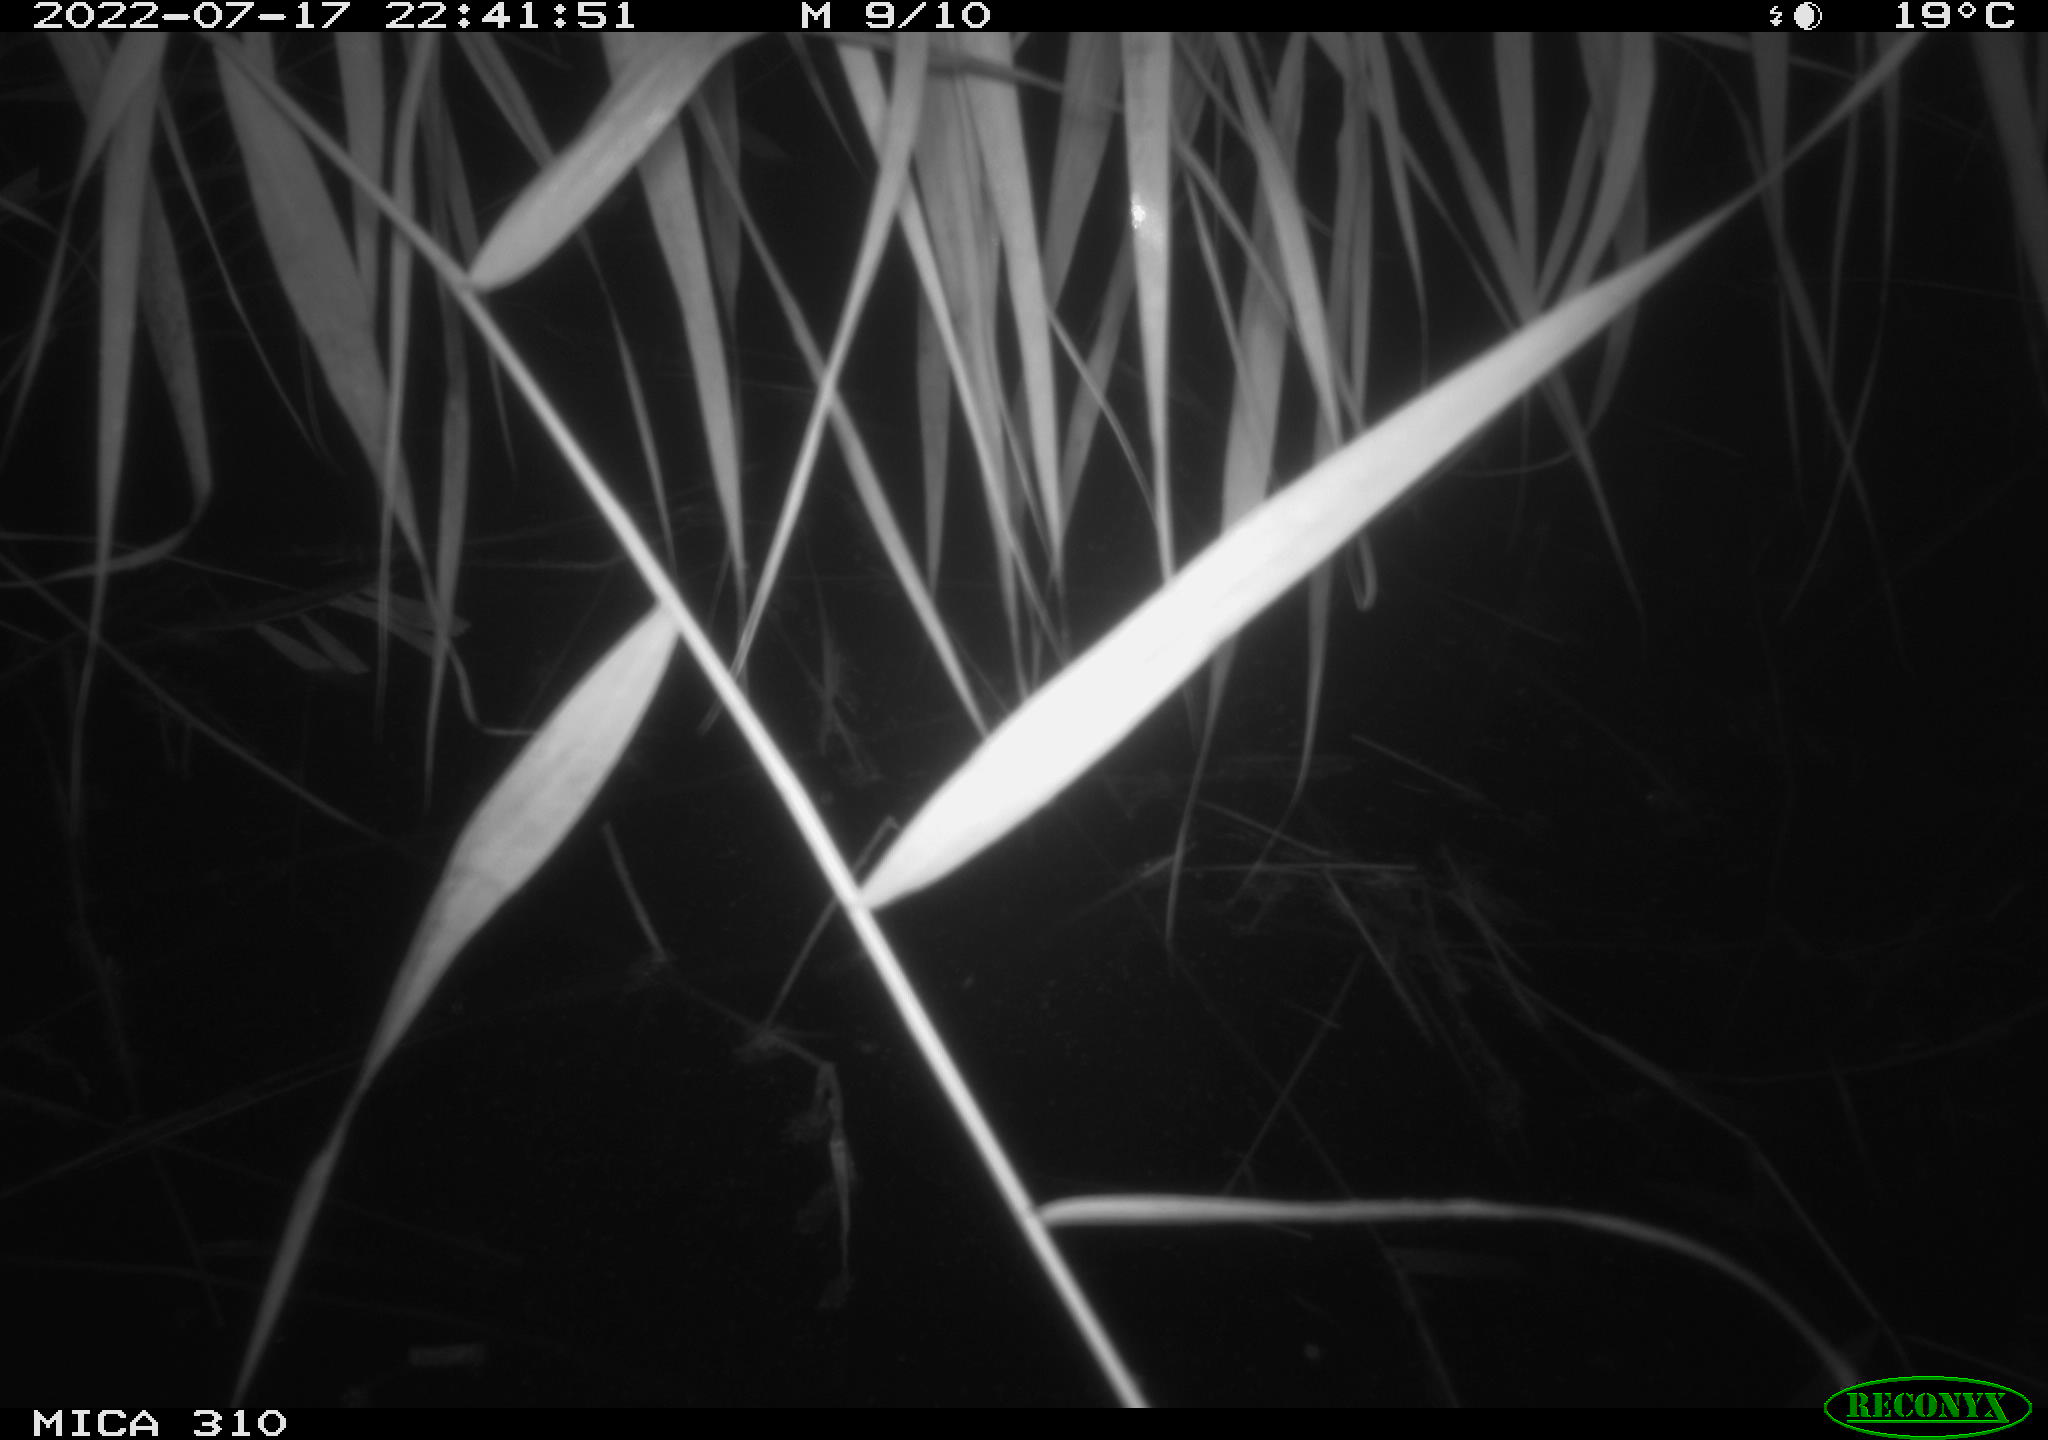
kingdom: Animalia
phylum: Chordata
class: Aves
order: Gruiformes
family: Rallidae
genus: Gallinula
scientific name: Gallinula chloropus
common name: Common moorhen
